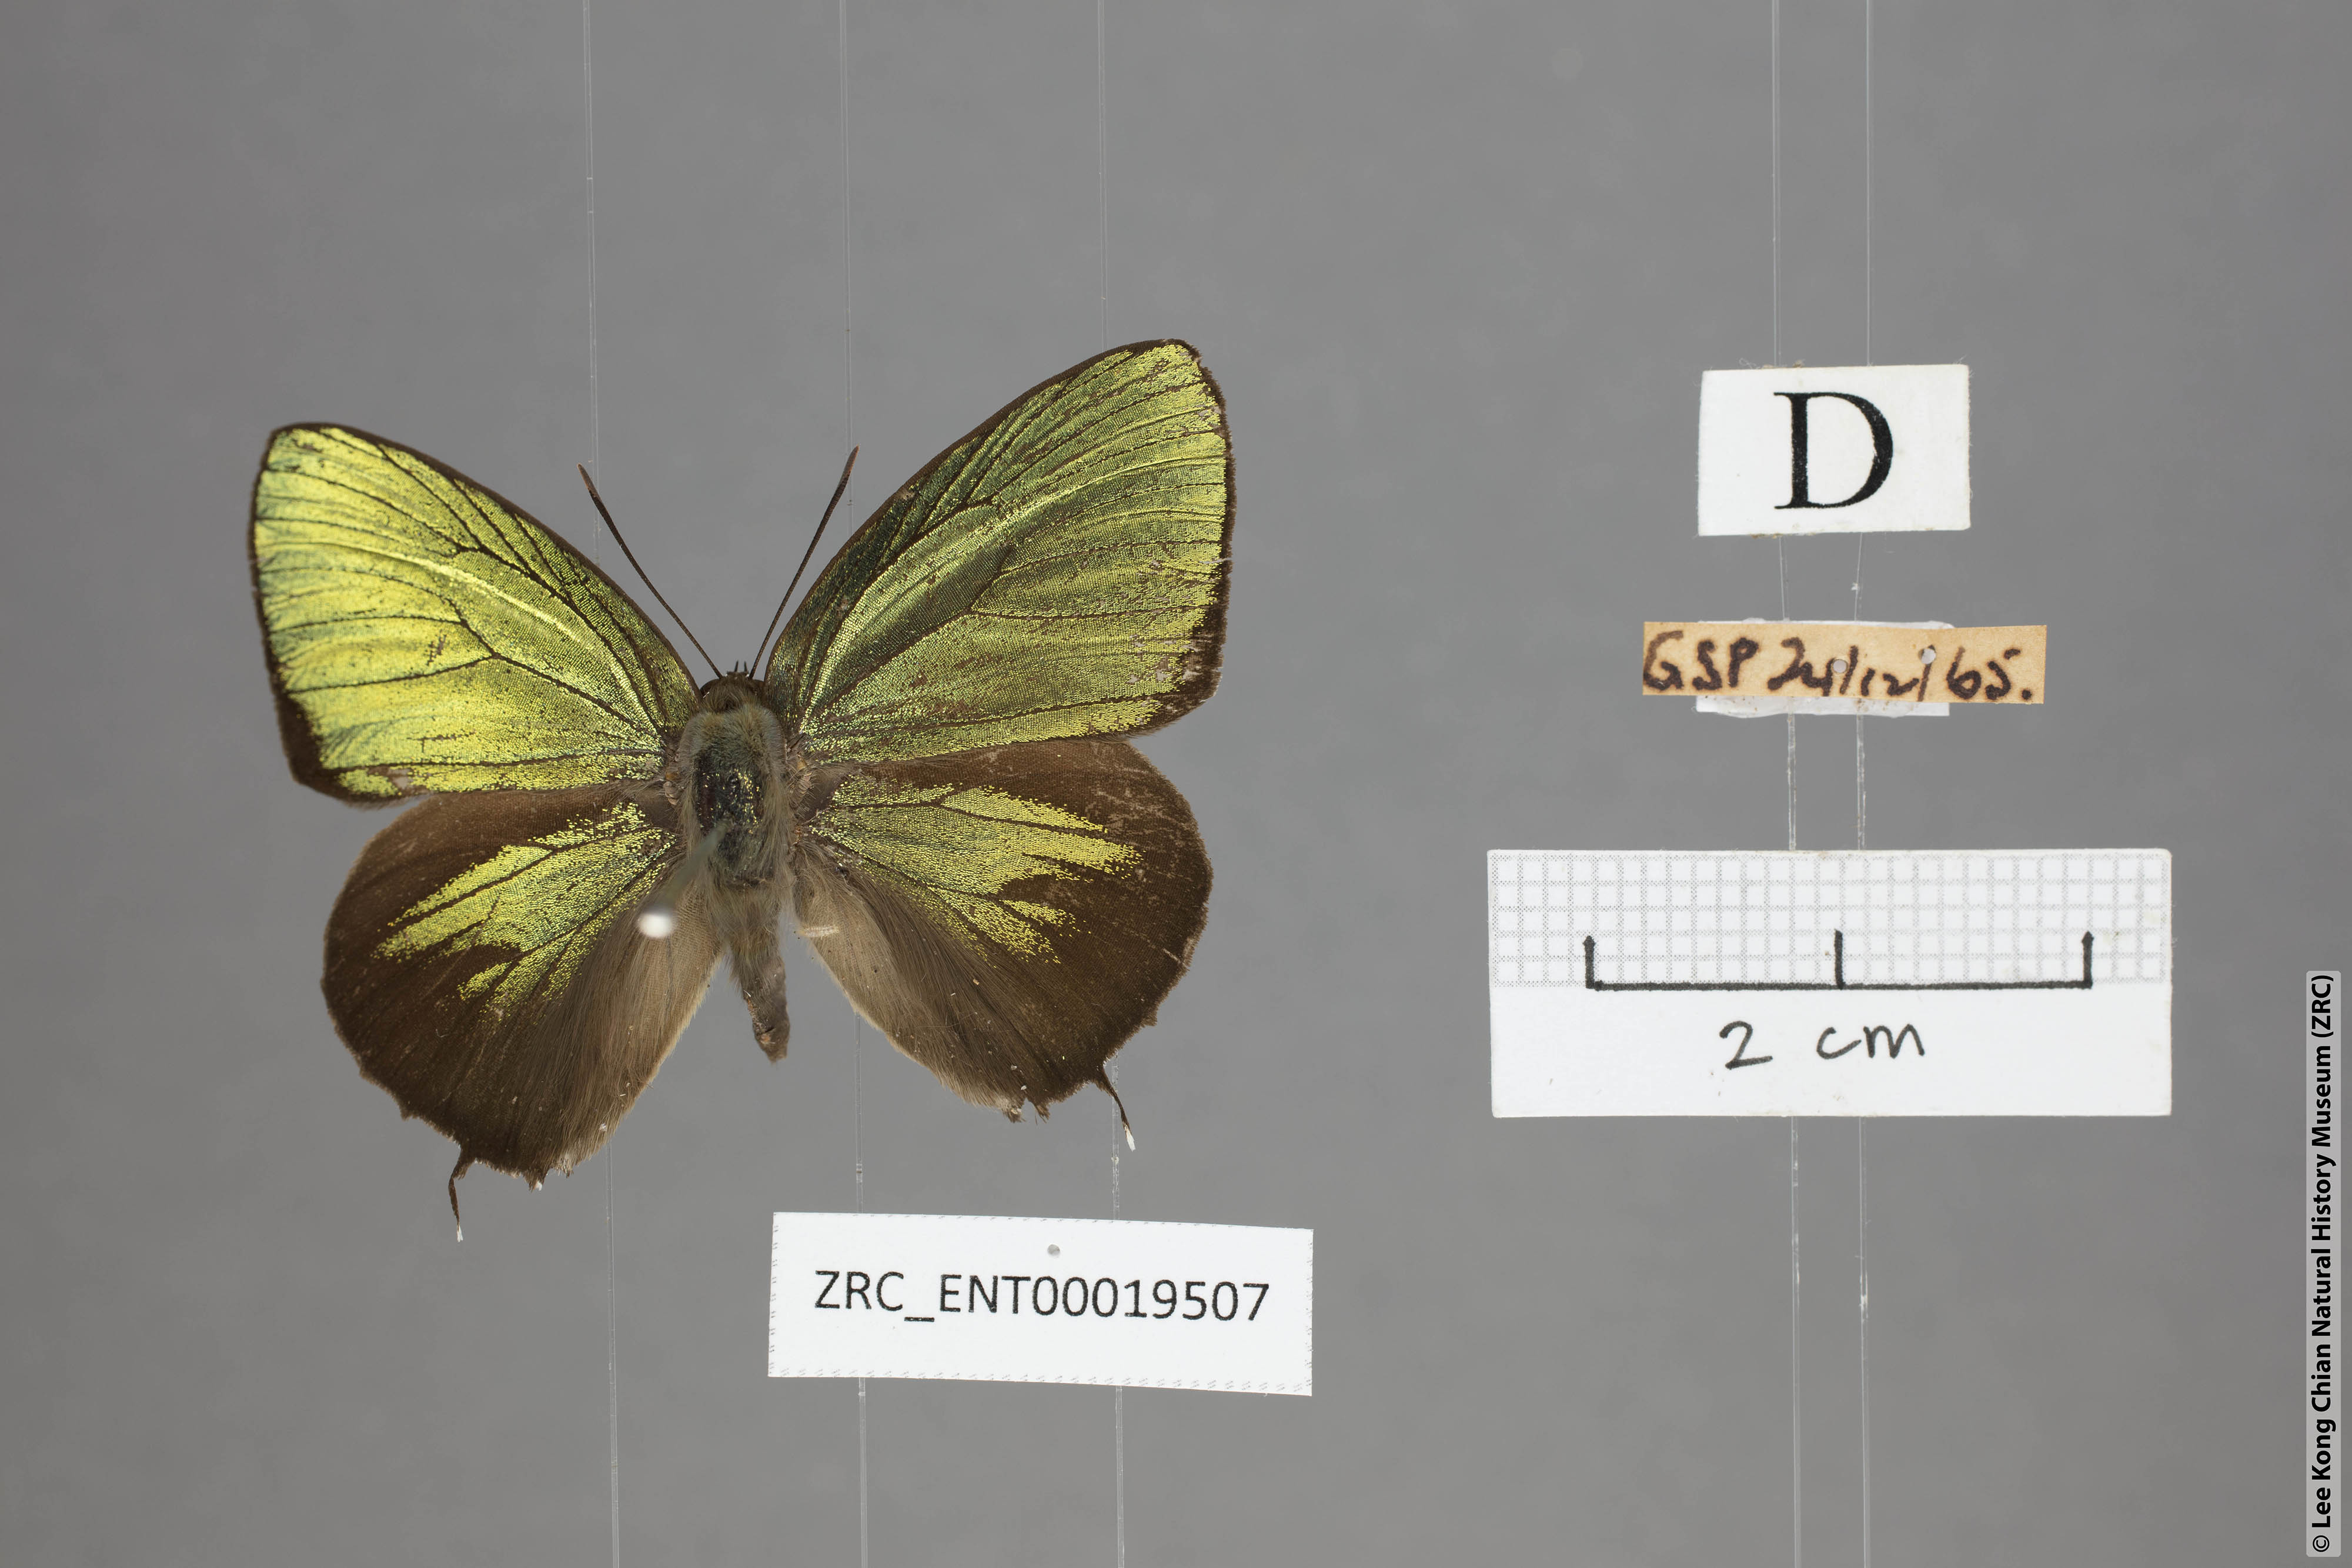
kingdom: Animalia
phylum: Arthropoda
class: Insecta
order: Lepidoptera
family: Lycaenidae
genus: Arhopala
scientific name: Arhopala hellenore
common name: Doherty's green oakblue
